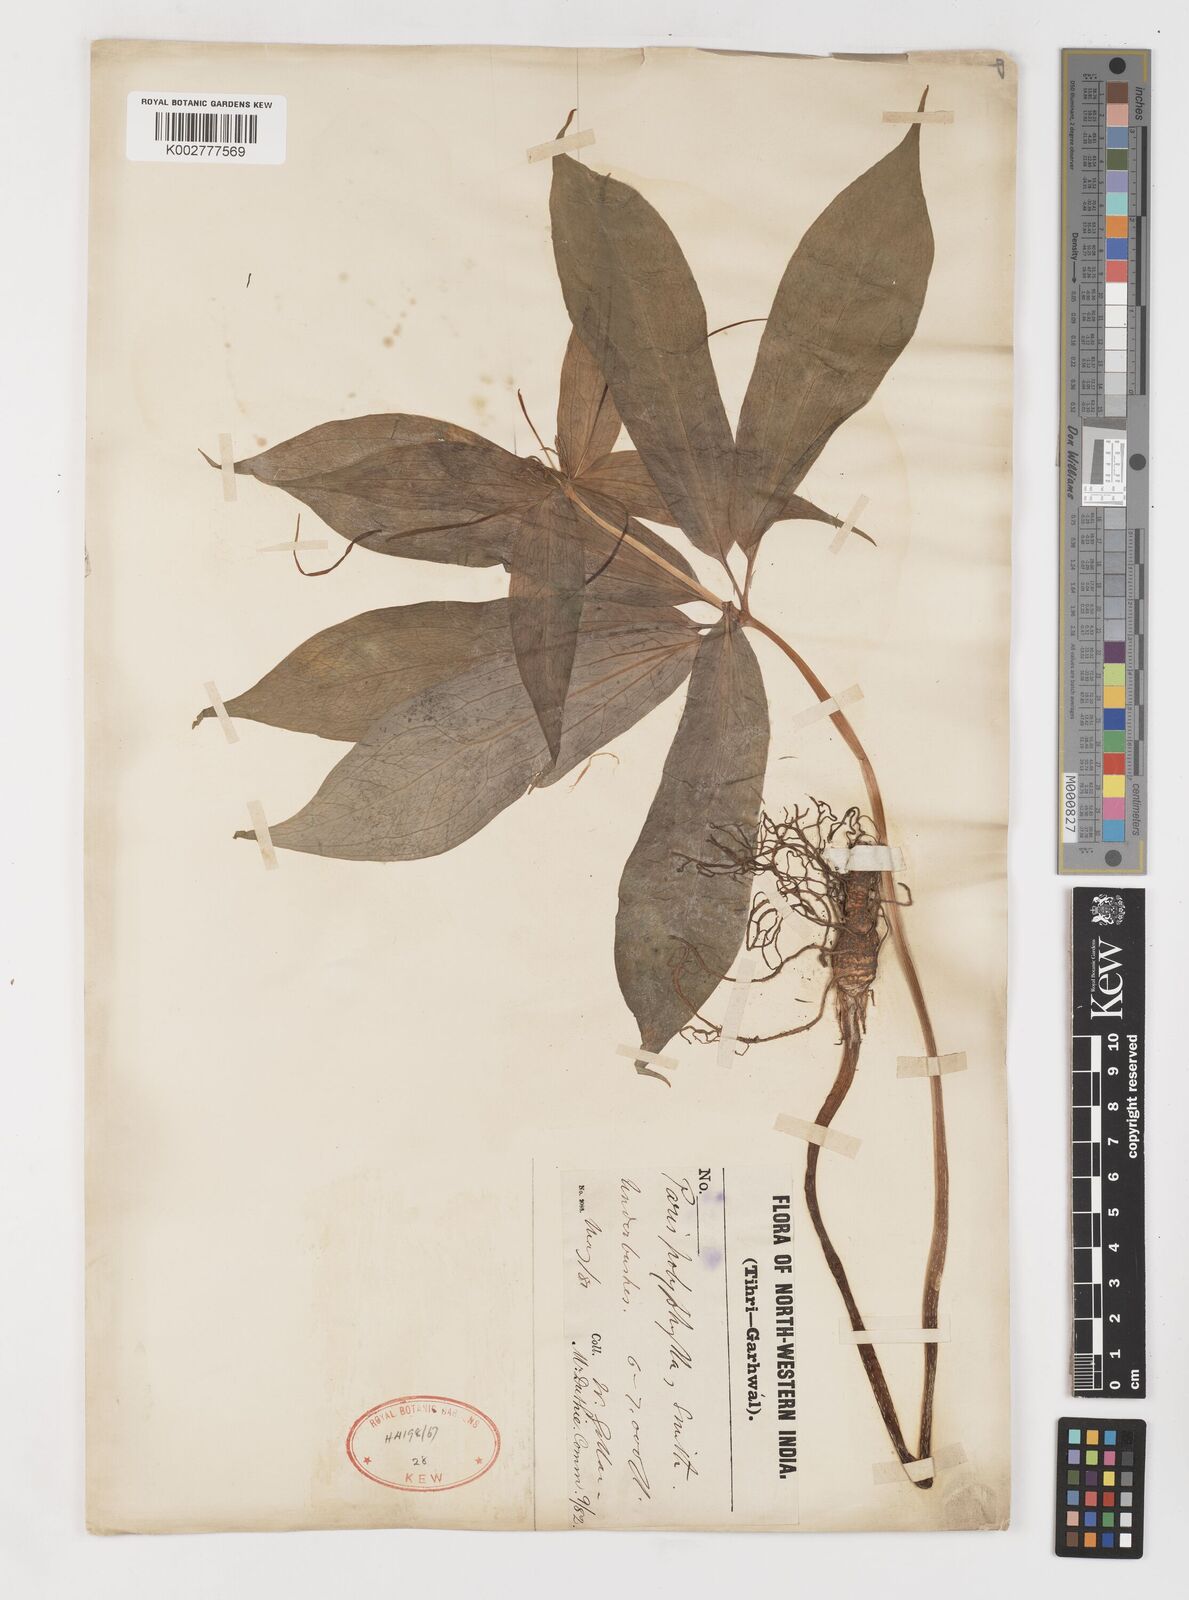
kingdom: Plantae
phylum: Tracheophyta
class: Liliopsida
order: Liliales
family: Melanthiaceae
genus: Paris
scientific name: Paris polyphylla
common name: Love apple
